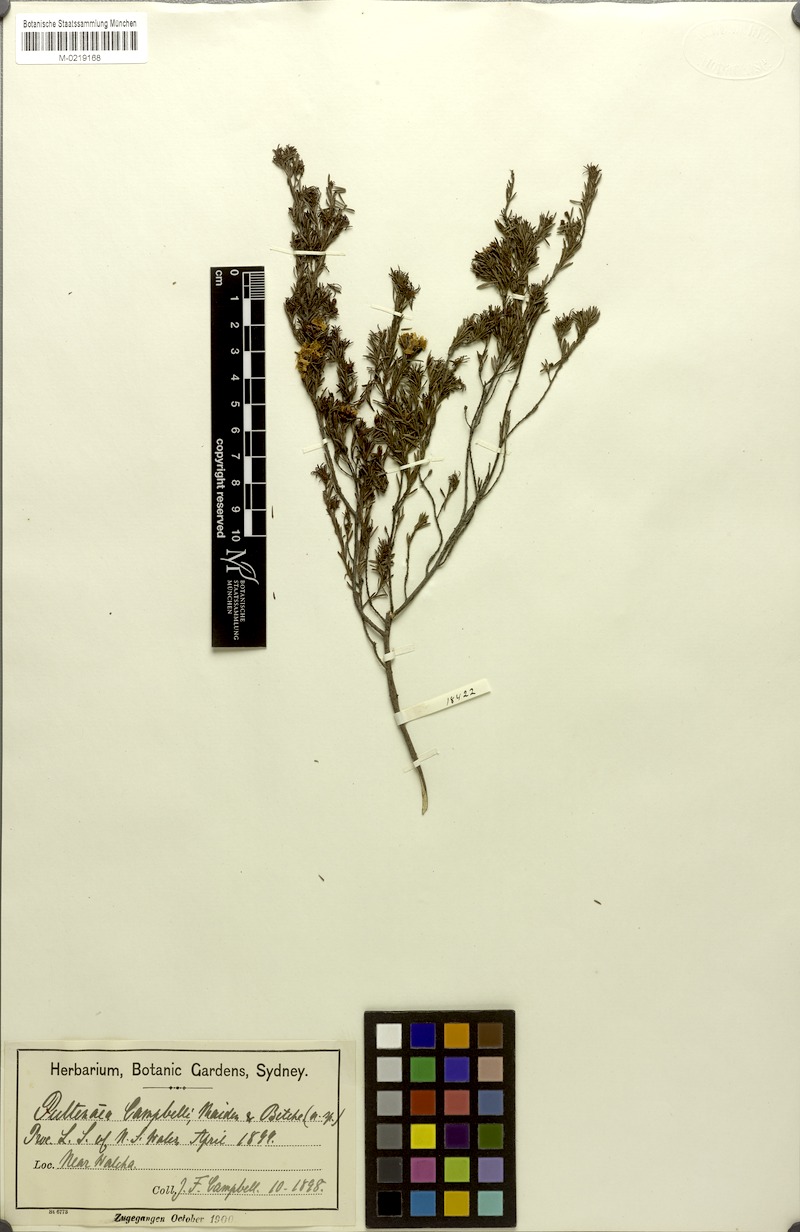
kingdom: Plantae
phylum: Tracheophyta
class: Magnoliopsida
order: Fabales
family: Fabaceae
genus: Pultenaea
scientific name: Pultenaea campbellii
